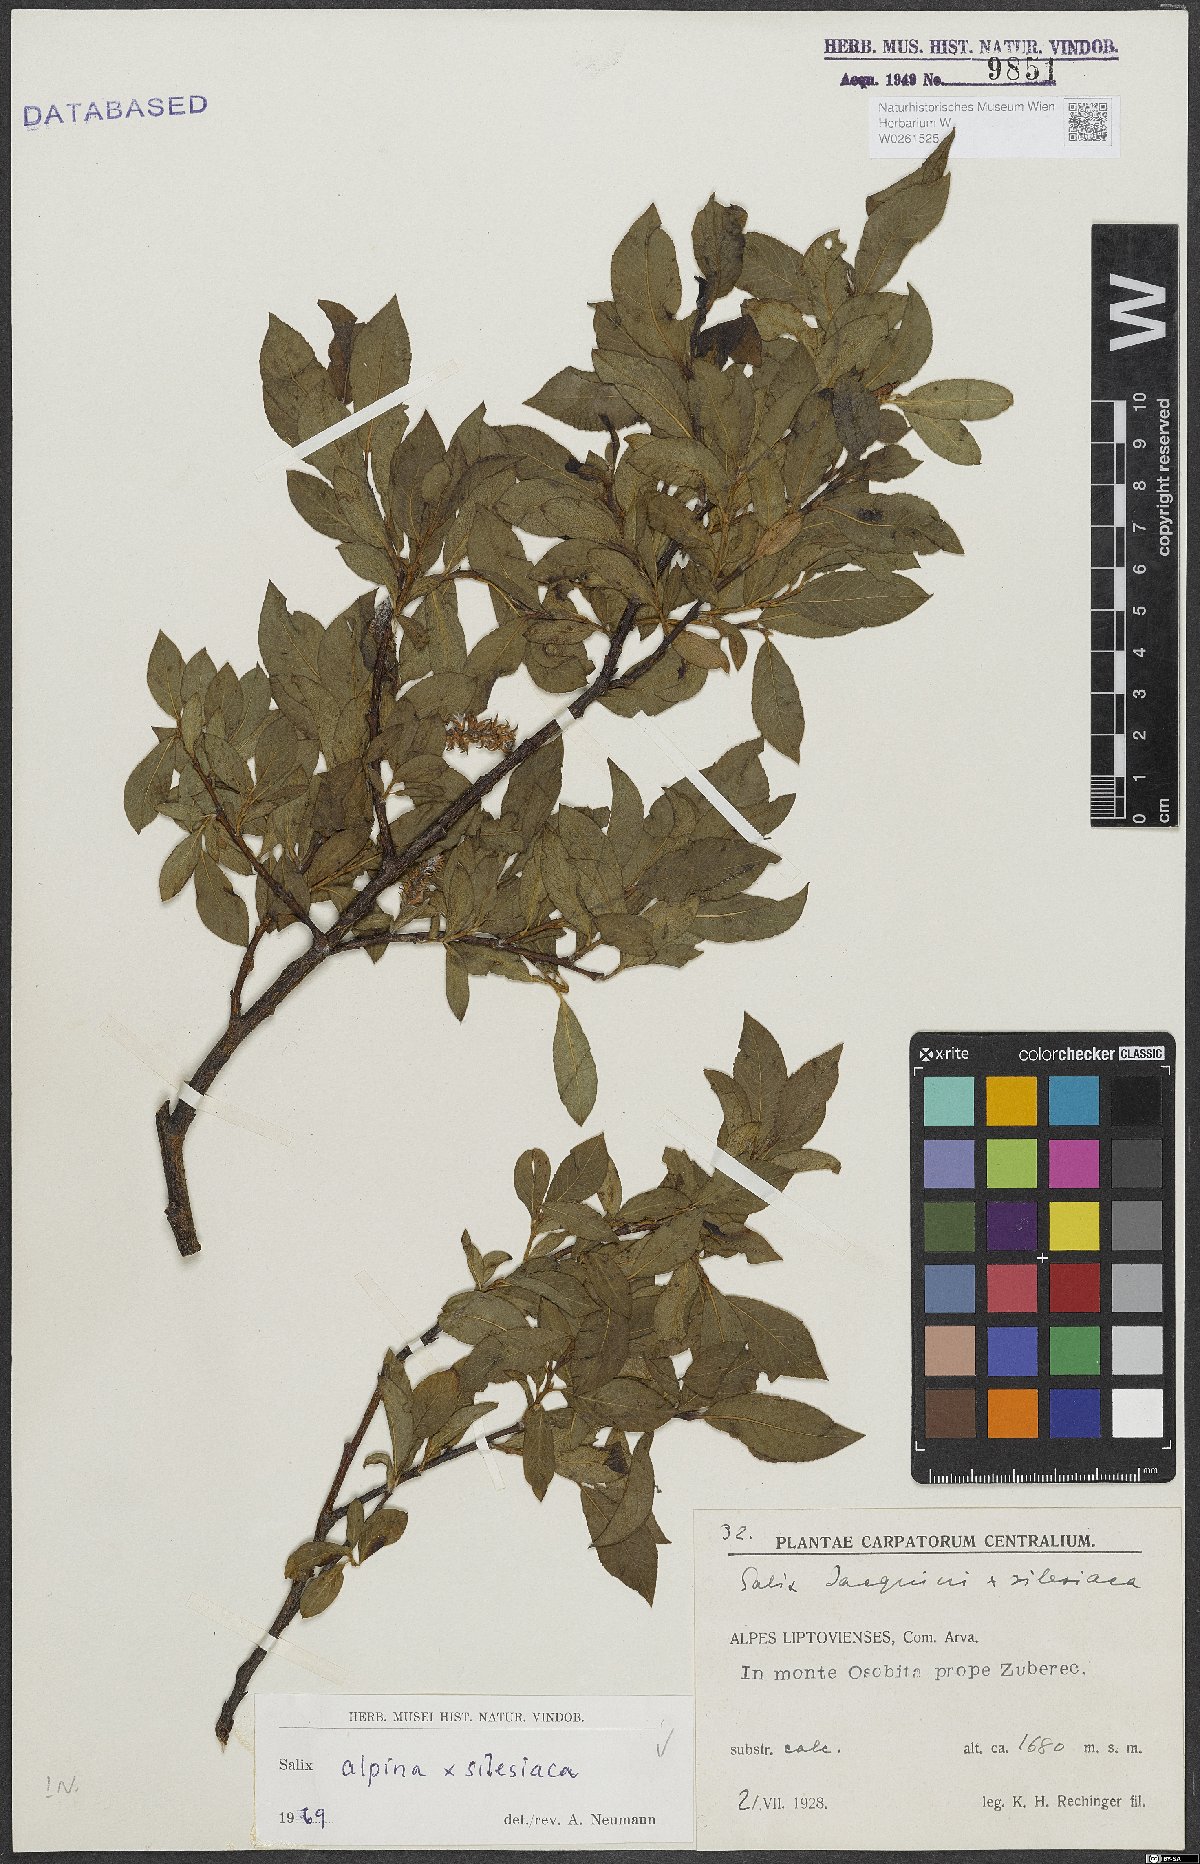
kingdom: Plantae
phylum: Tracheophyta
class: Magnoliopsida
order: Malpighiales
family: Salicaceae
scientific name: Salicaceae
